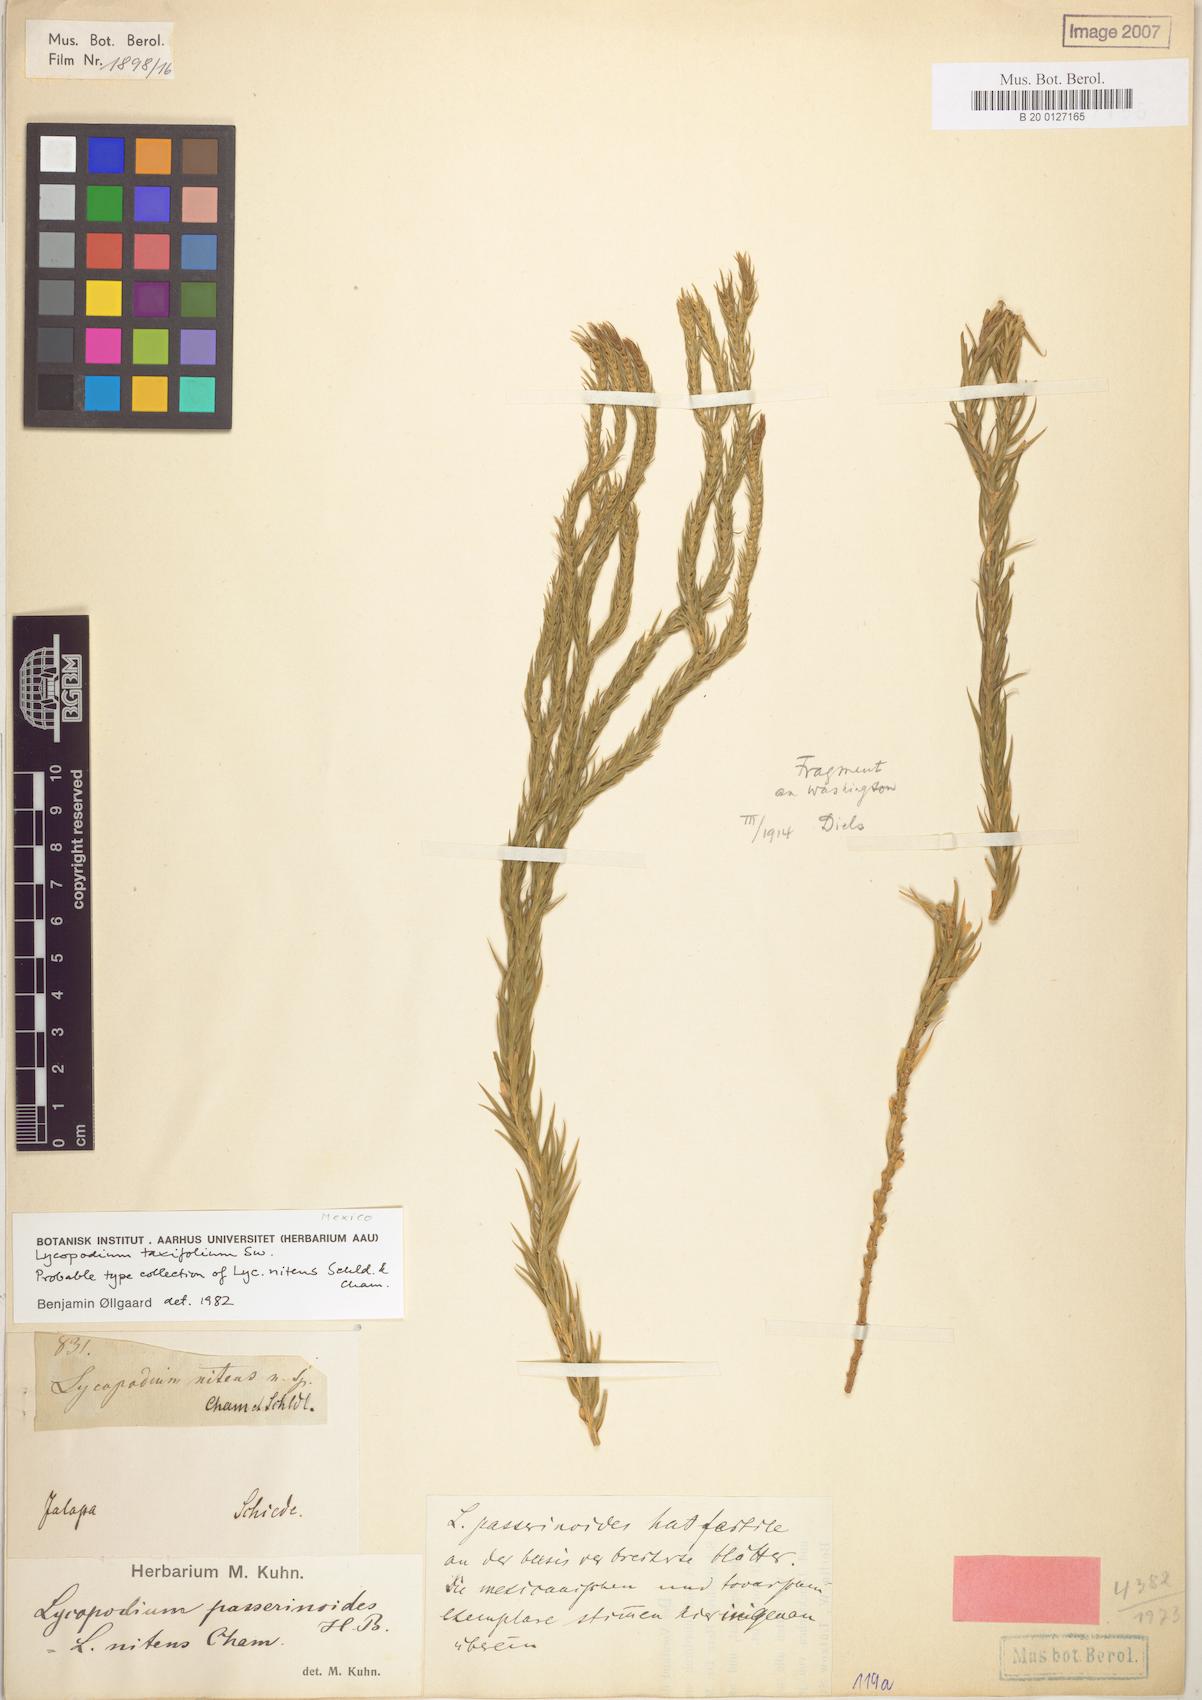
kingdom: Plantae
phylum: Tracheophyta
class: Lycopodiopsida
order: Lycopodiales
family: Lycopodiaceae
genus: Phlegmariurus
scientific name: Phlegmariurus taxifolius
